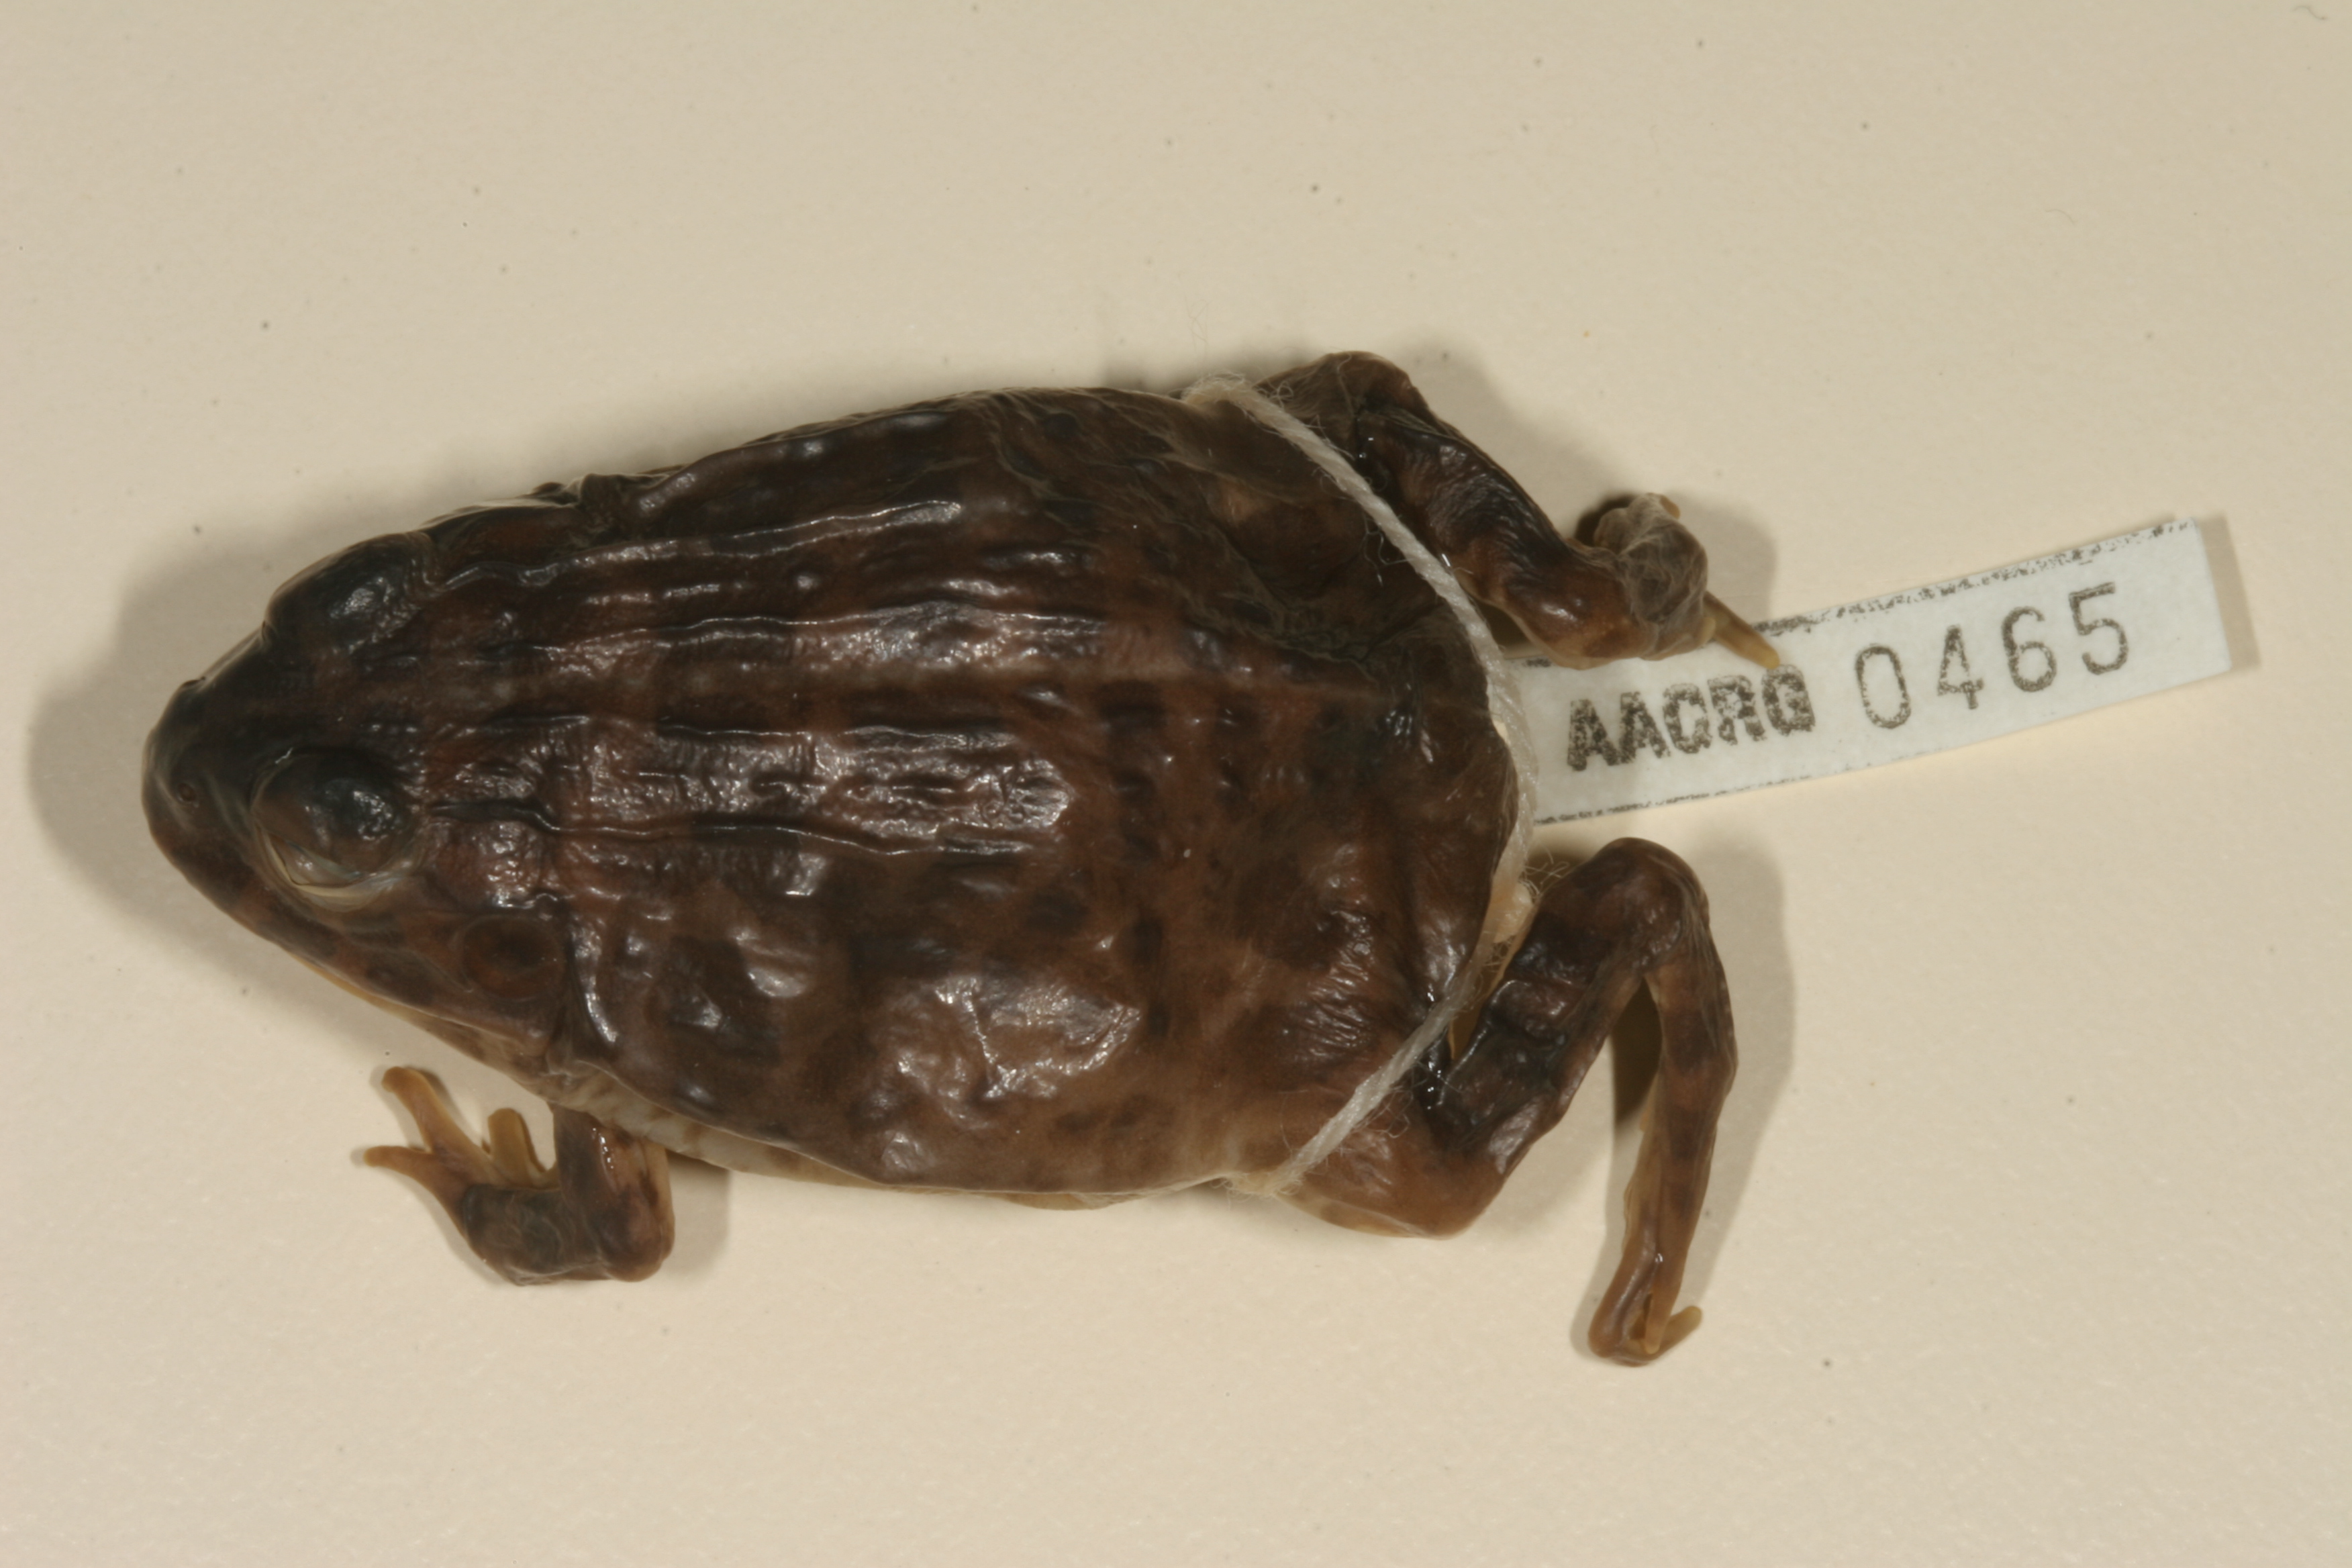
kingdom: Animalia
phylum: Chordata
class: Amphibia
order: Anura
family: Pyxicephalidae
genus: Pyxicephalus
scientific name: Pyxicephalus edulis
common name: Peter's bullfrog
